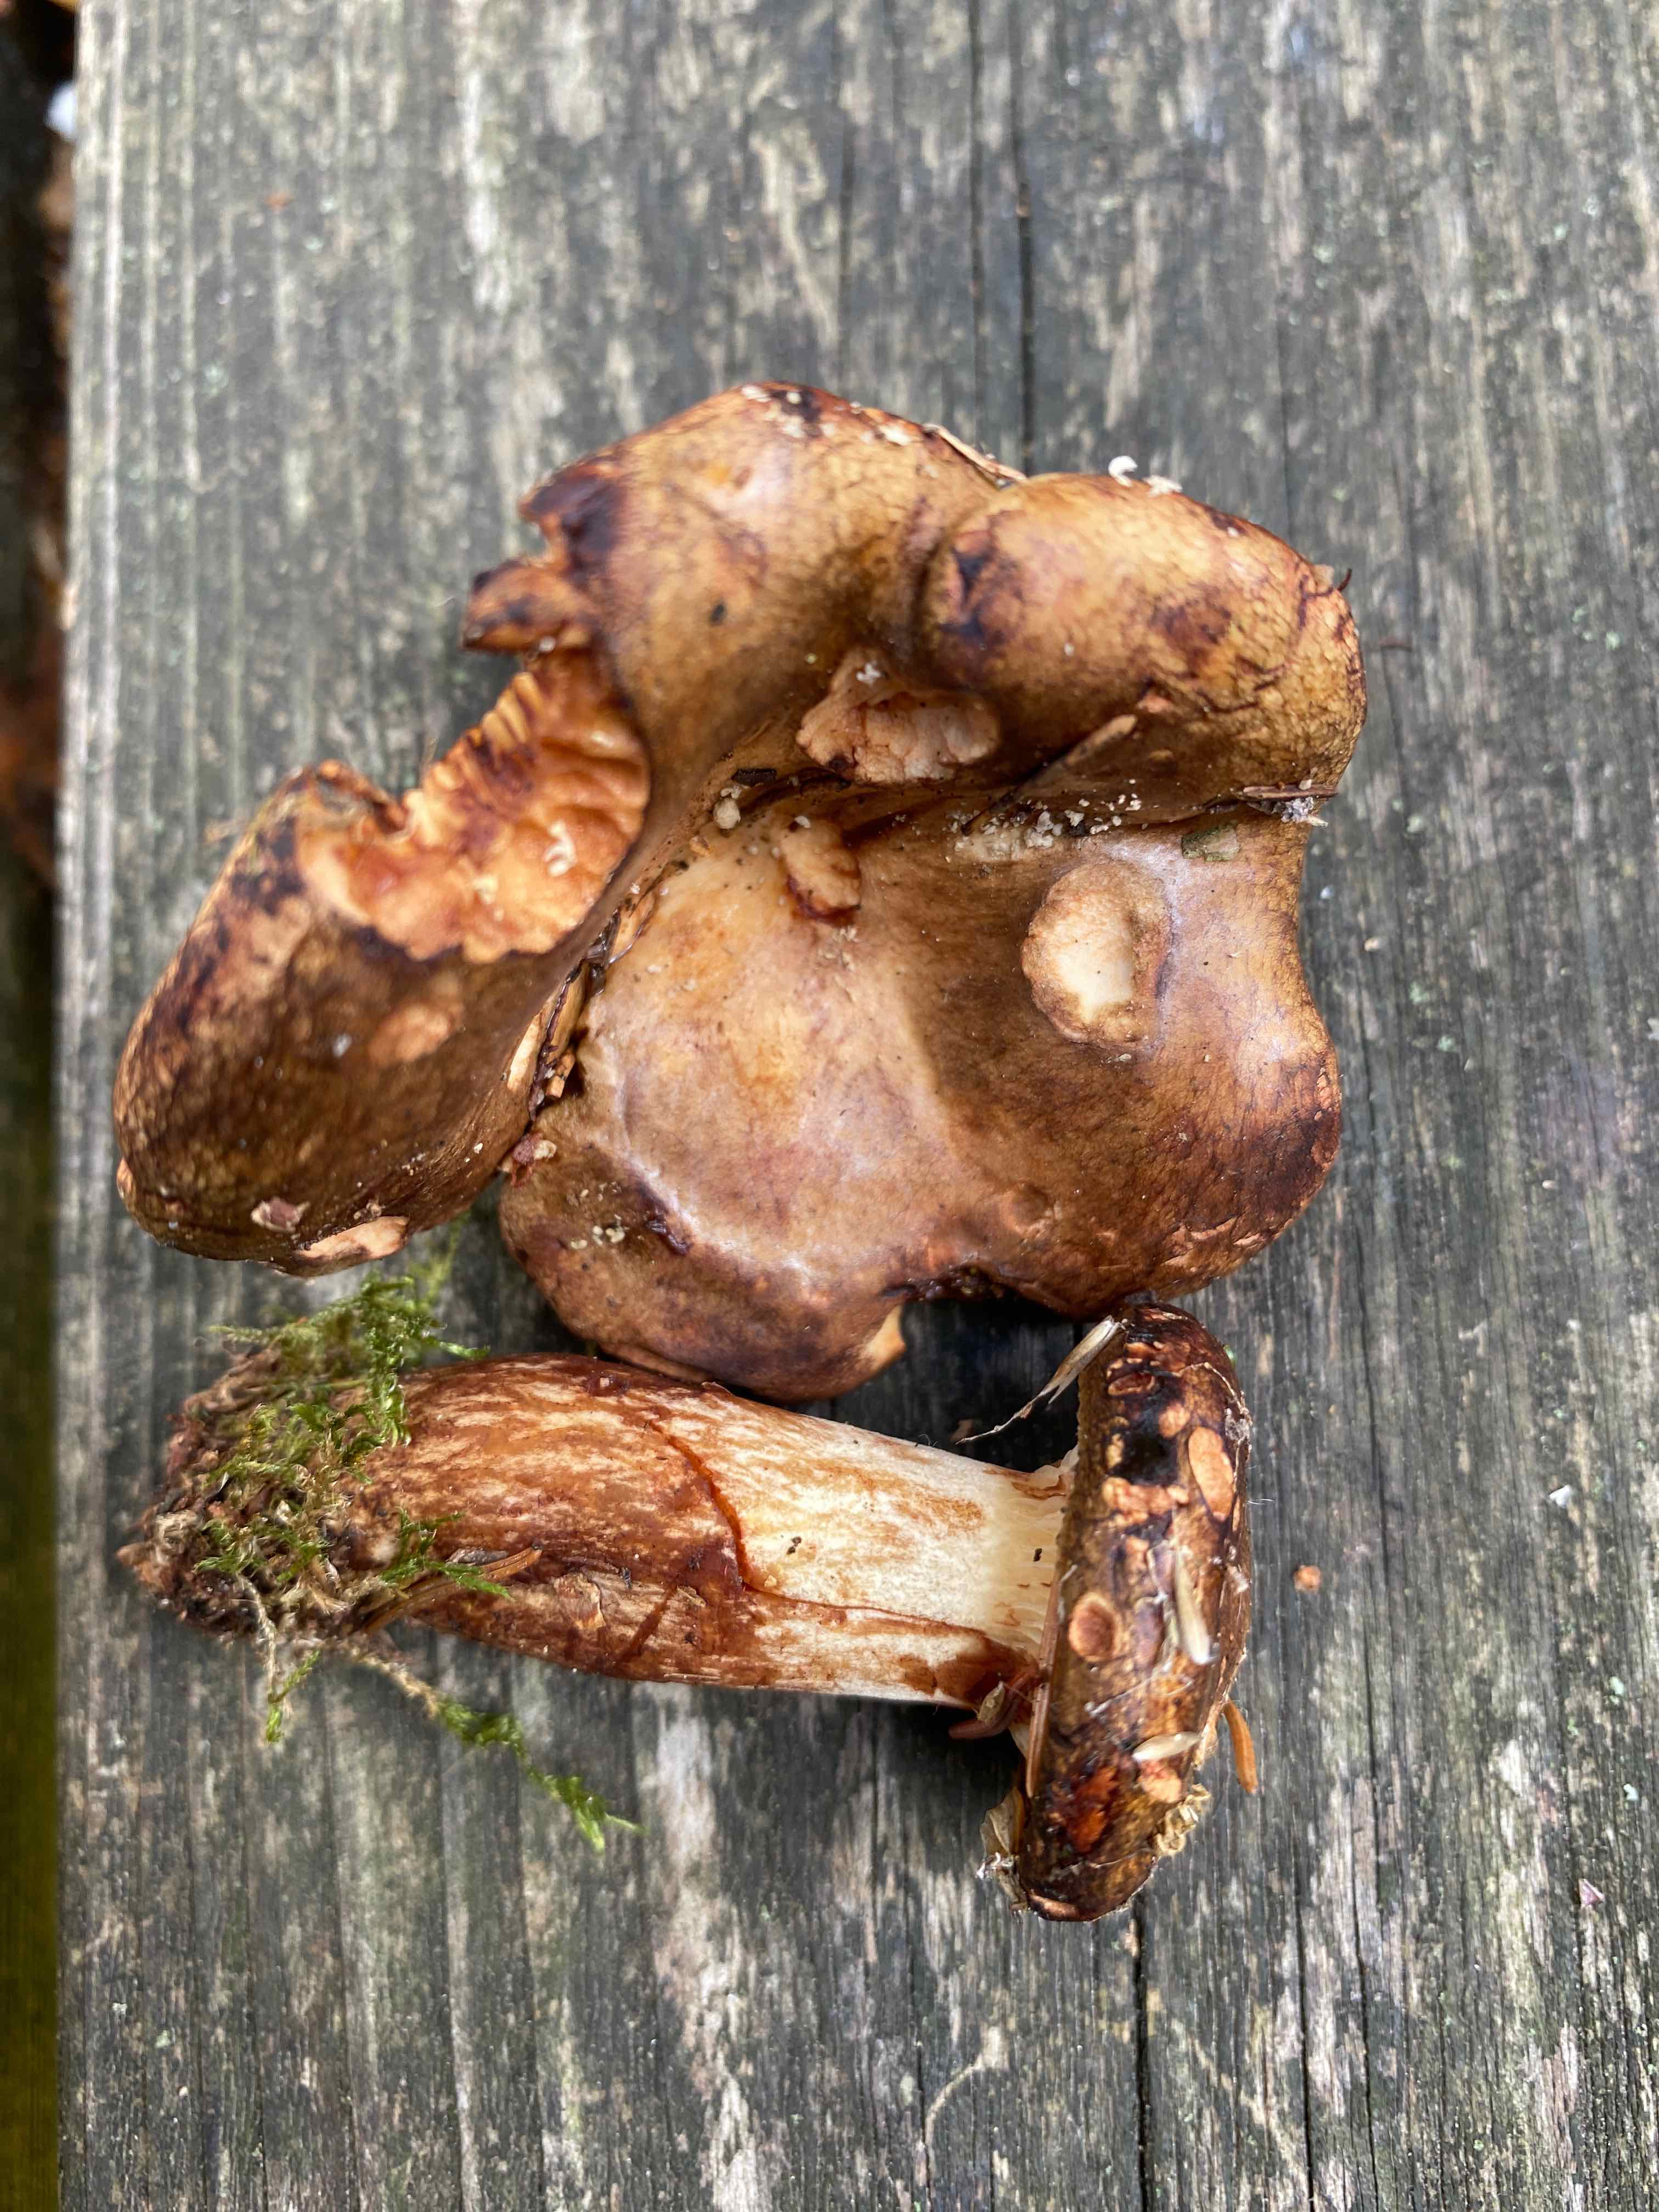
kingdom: Fungi
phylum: Basidiomycota
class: Agaricomycetes
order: Boletales
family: Paxillaceae
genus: Paxillus
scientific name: Paxillus involutus
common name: almindelig netbladhat
